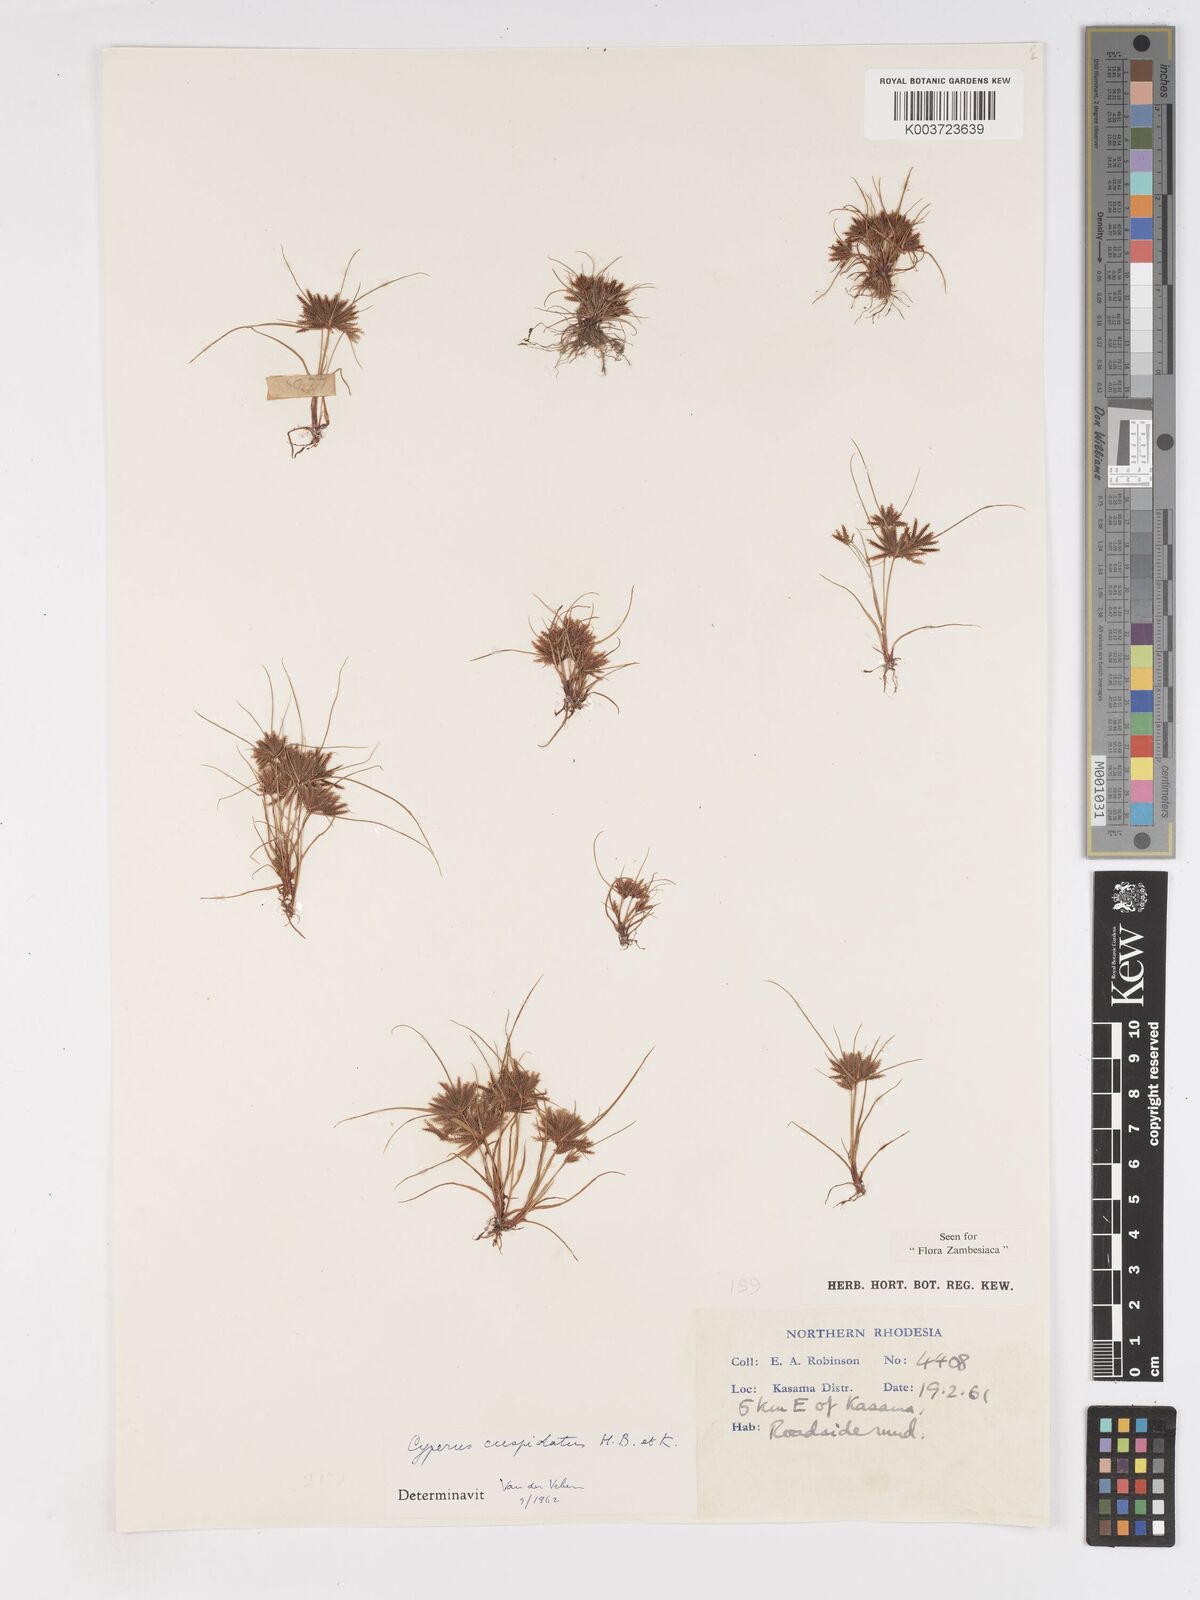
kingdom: Plantae
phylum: Tracheophyta
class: Liliopsida
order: Poales
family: Cyperaceae
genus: Cyperus
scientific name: Cyperus betafensis
